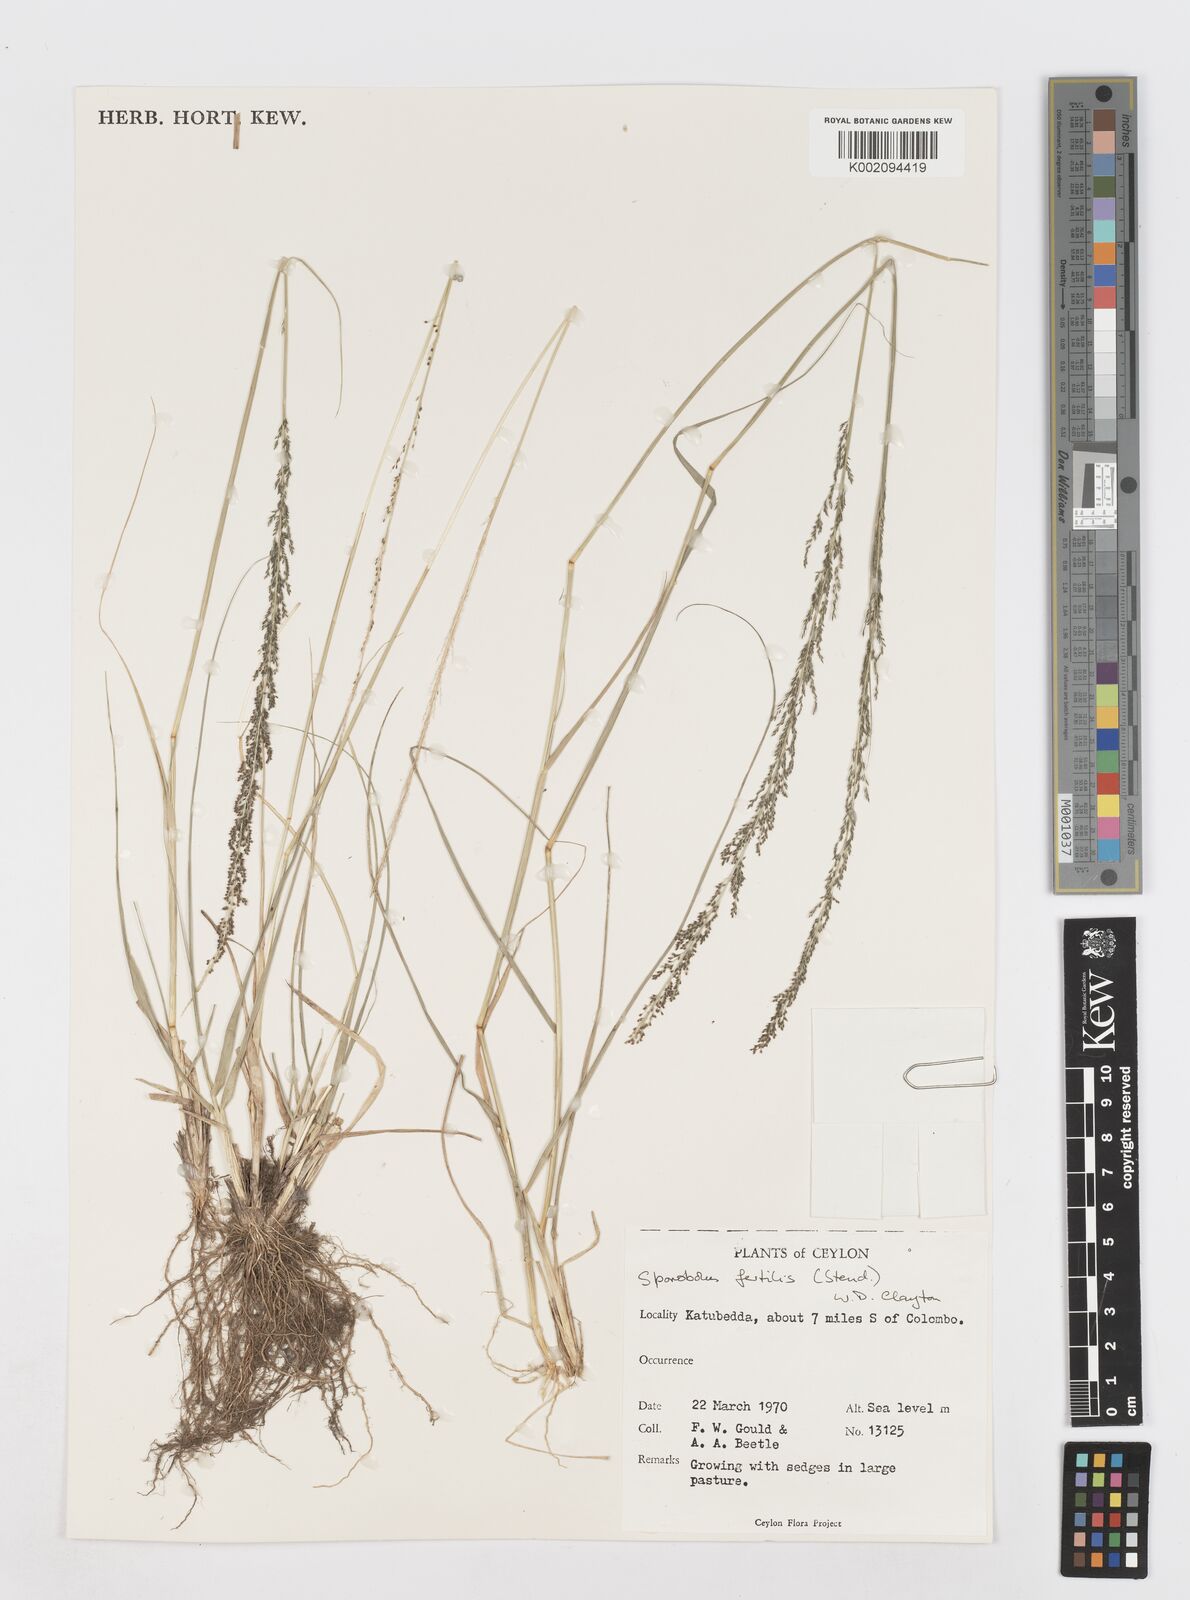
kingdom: Plantae
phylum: Tracheophyta
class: Liliopsida
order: Poales
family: Poaceae
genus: Sporobolus
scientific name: Sporobolus fertilis
